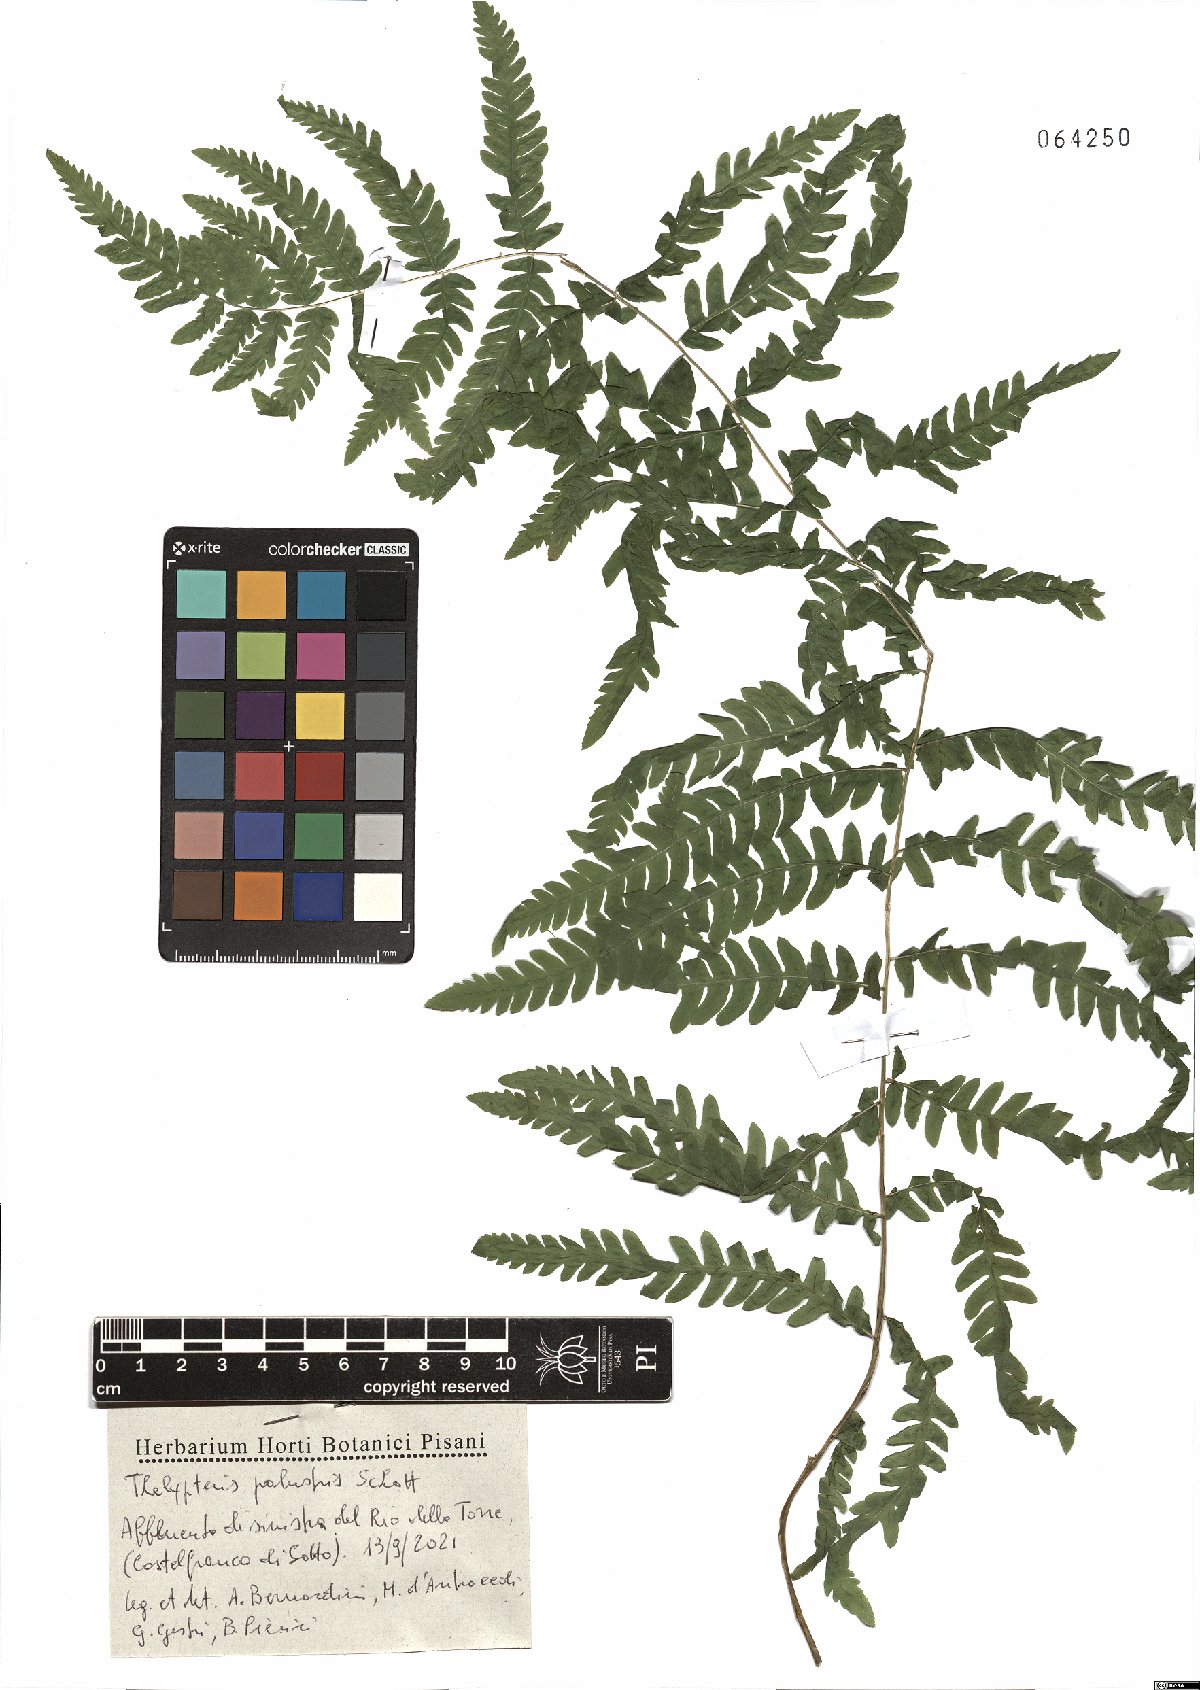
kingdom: Plantae
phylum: Tracheophyta
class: Polypodiopsida
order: Polypodiales
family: Thelypteridaceae
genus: Thelypteris
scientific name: Thelypteris palustris
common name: Marsh fern
